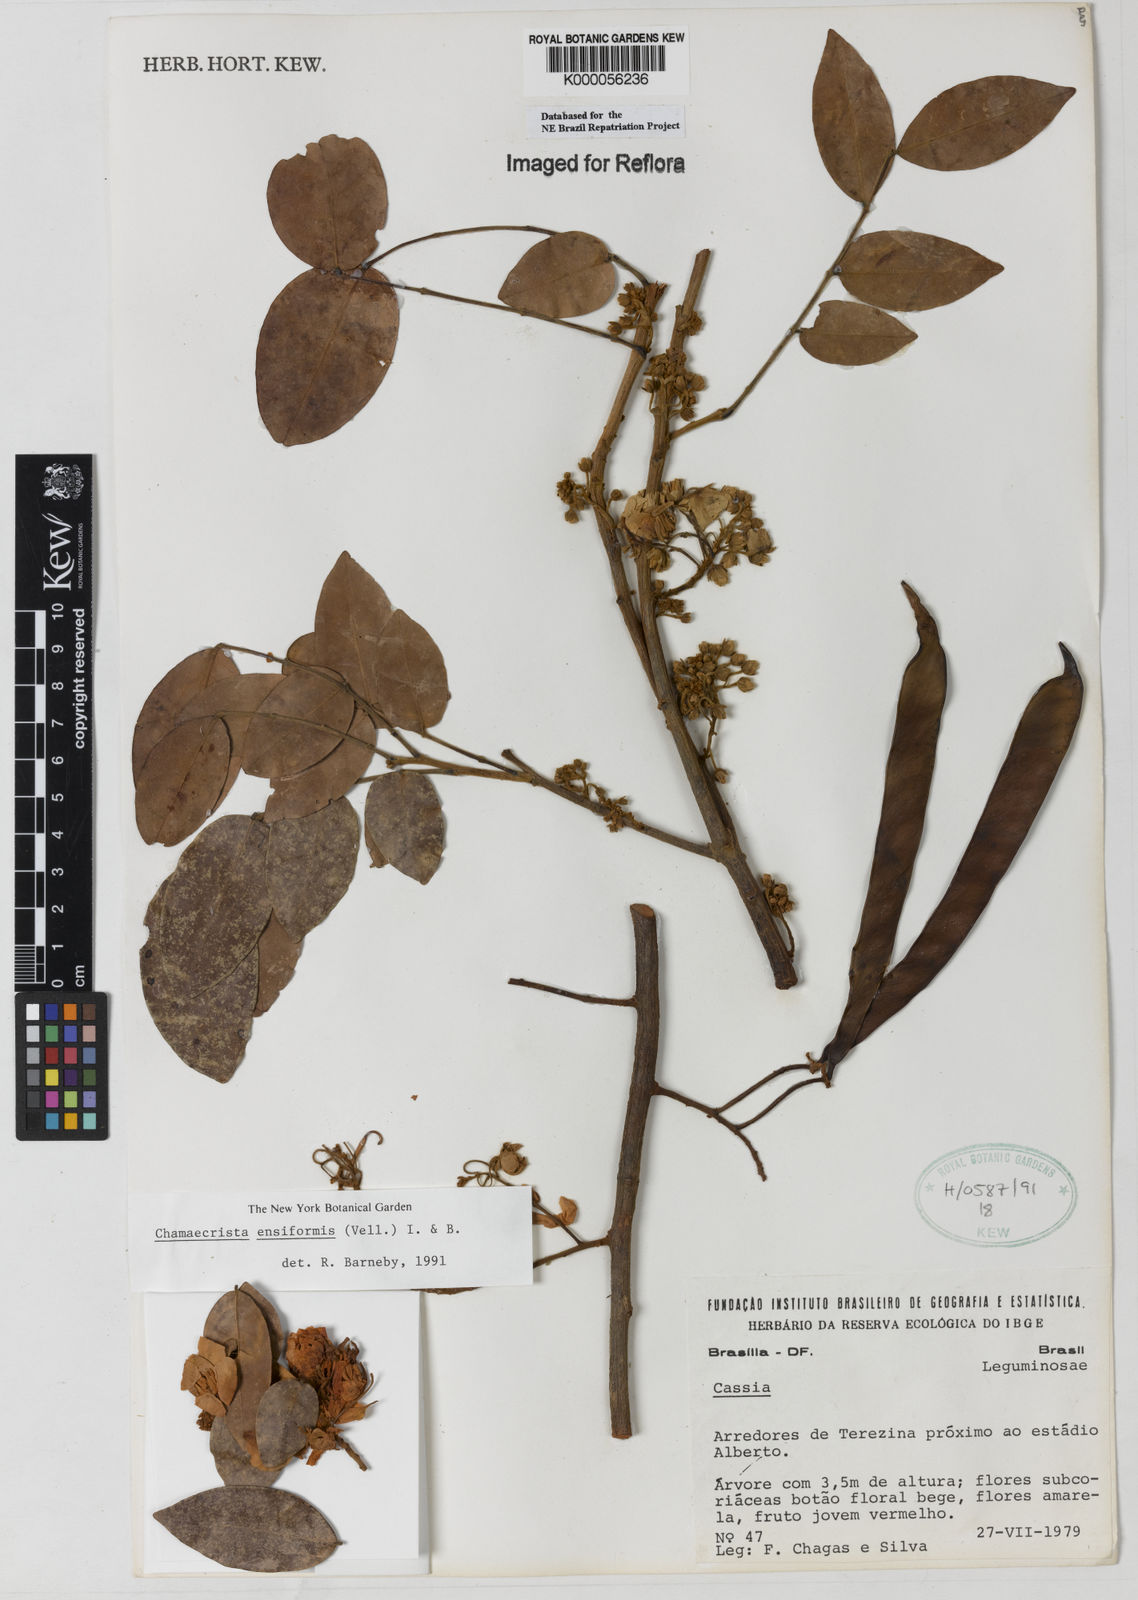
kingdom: Plantae
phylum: Tracheophyta
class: Magnoliopsida
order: Fabales
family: Fabaceae
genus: Chamaecrista
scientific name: Chamaecrista ensiformis
